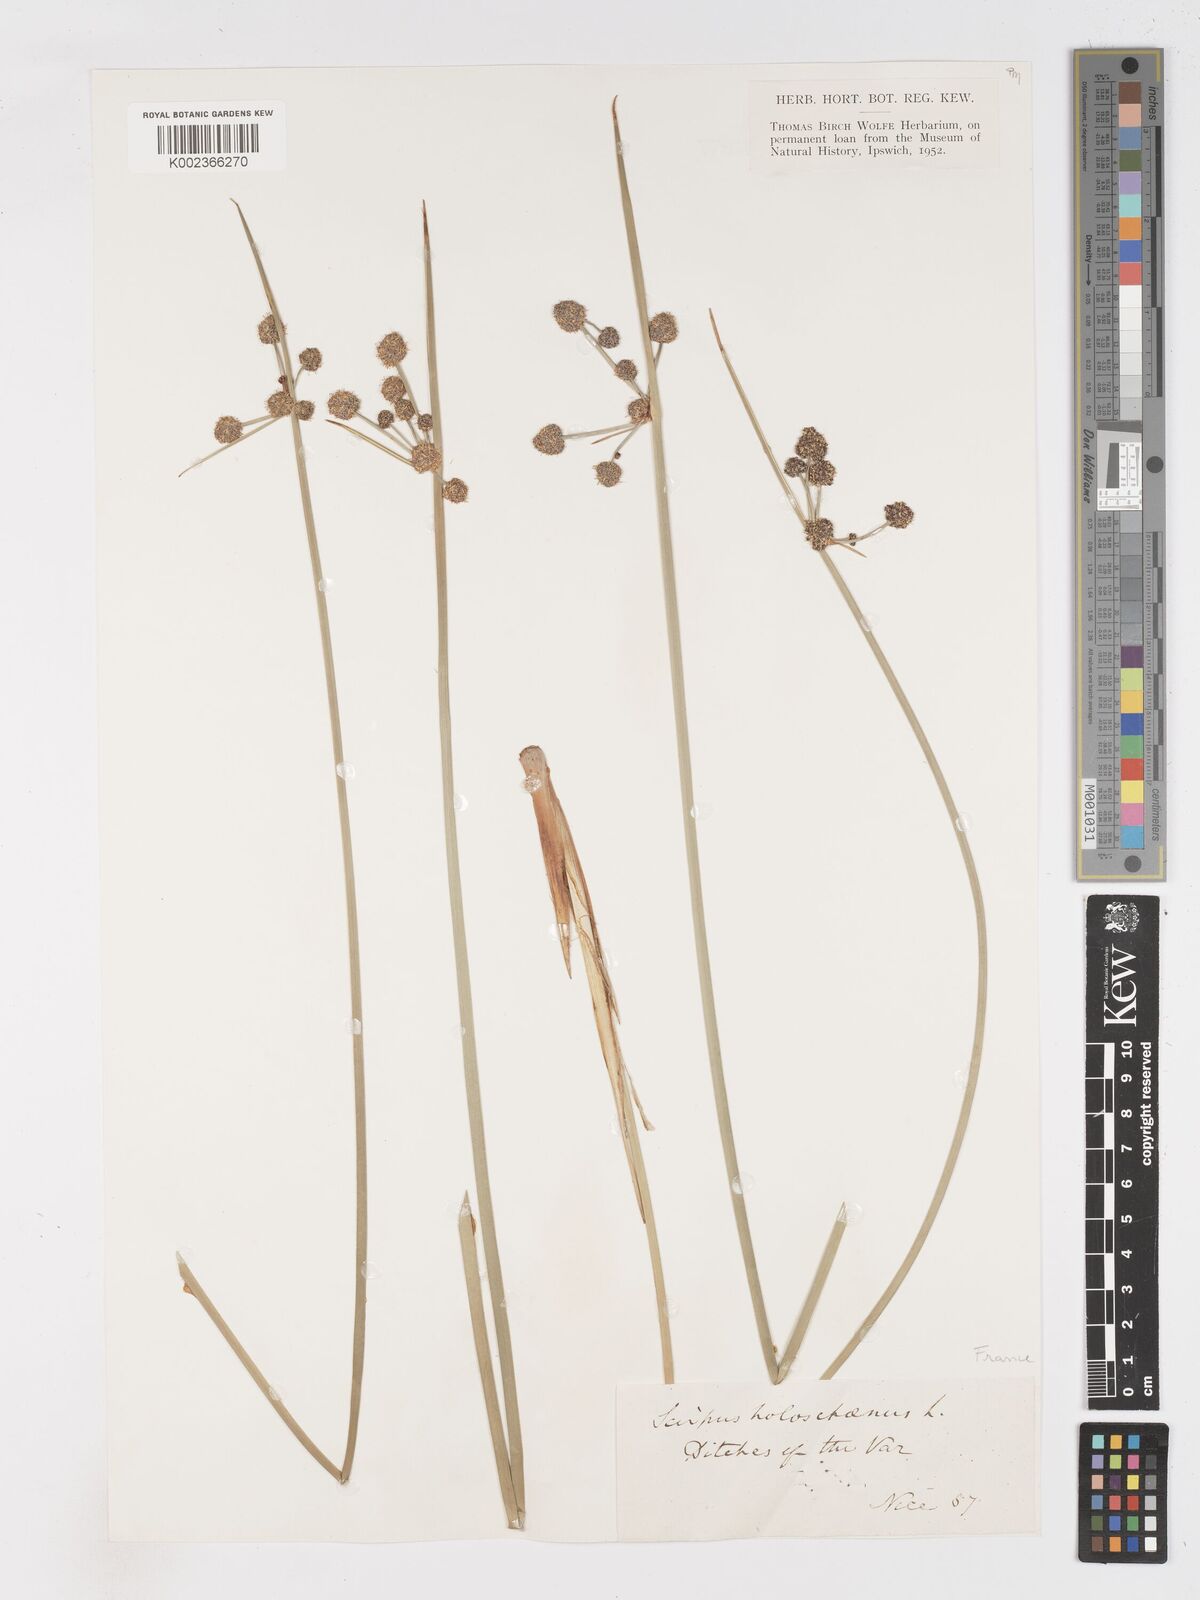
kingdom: Plantae
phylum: Tracheophyta
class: Liliopsida
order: Poales
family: Cyperaceae
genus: Scirpoides
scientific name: Scirpoides holoschoenus
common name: Round-headed club-rush
